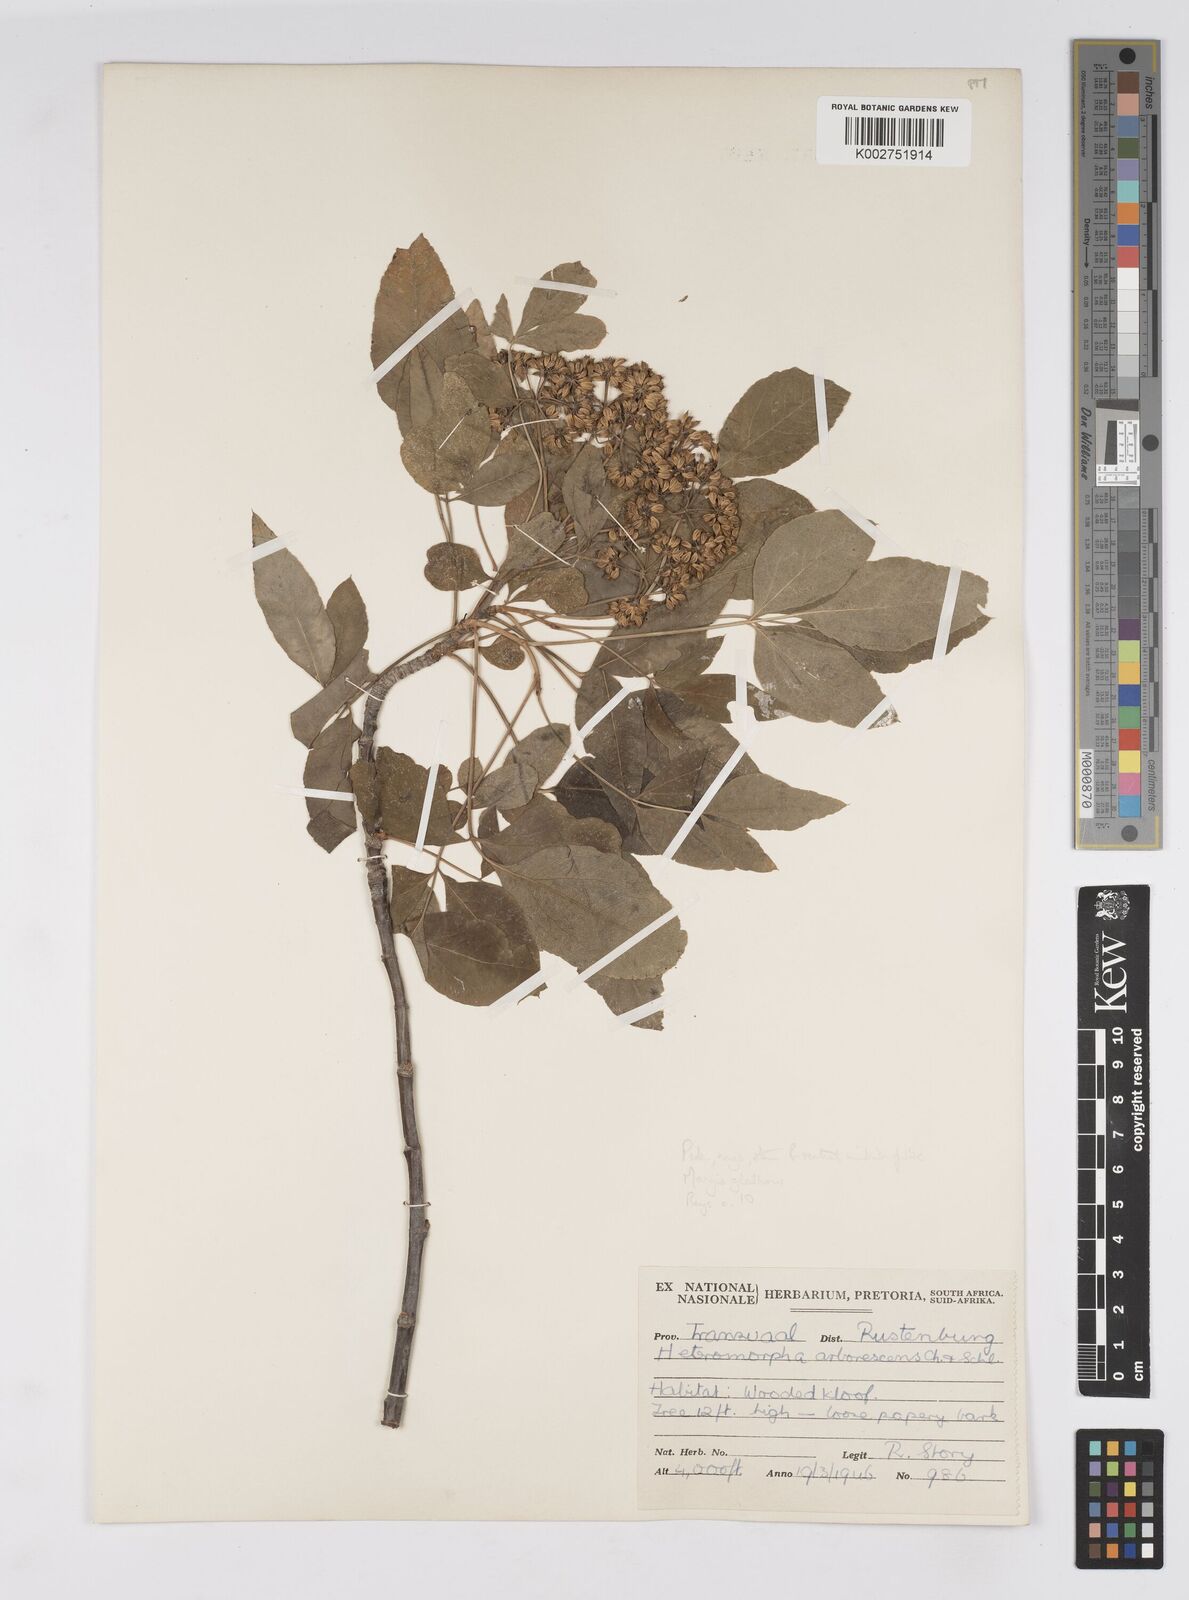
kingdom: Plantae
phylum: Tracheophyta
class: Magnoliopsida
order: Apiales
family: Apiaceae
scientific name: Apiaceae
